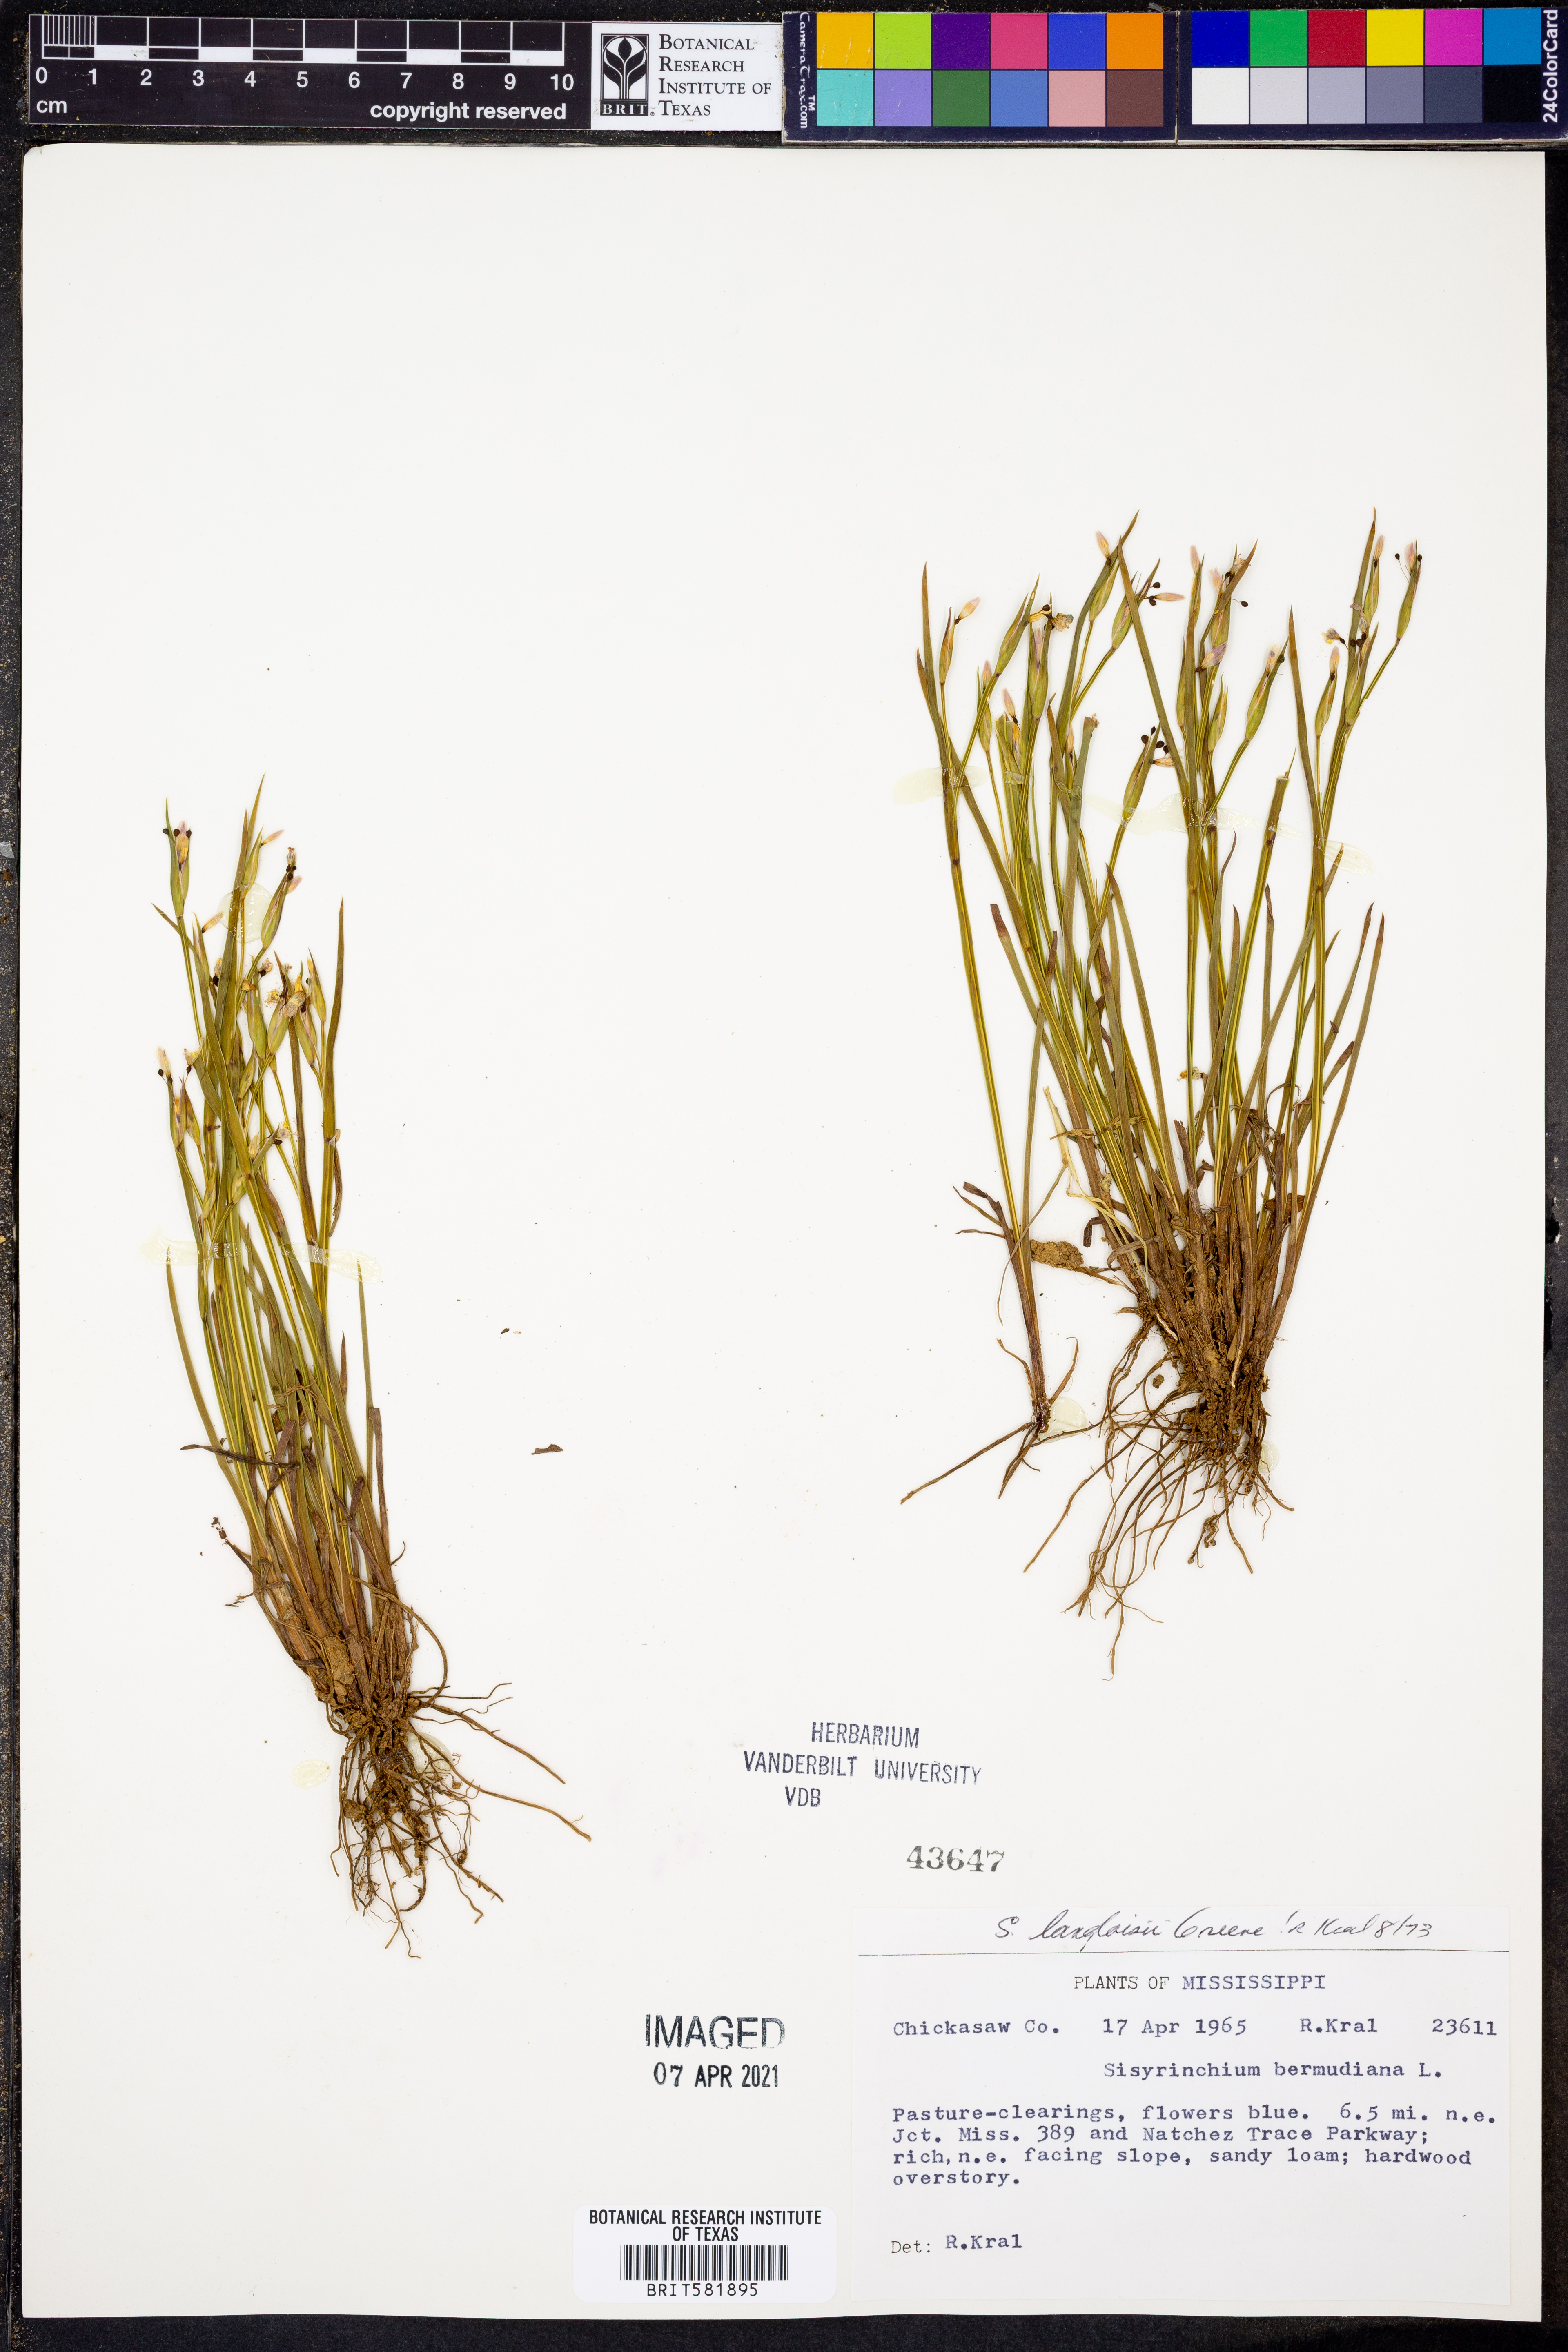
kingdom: Plantae
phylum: Tracheophyta
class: Liliopsida
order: Asparagales
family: Iridaceae
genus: Sisyrinchium
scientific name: Sisyrinchium langloisii
